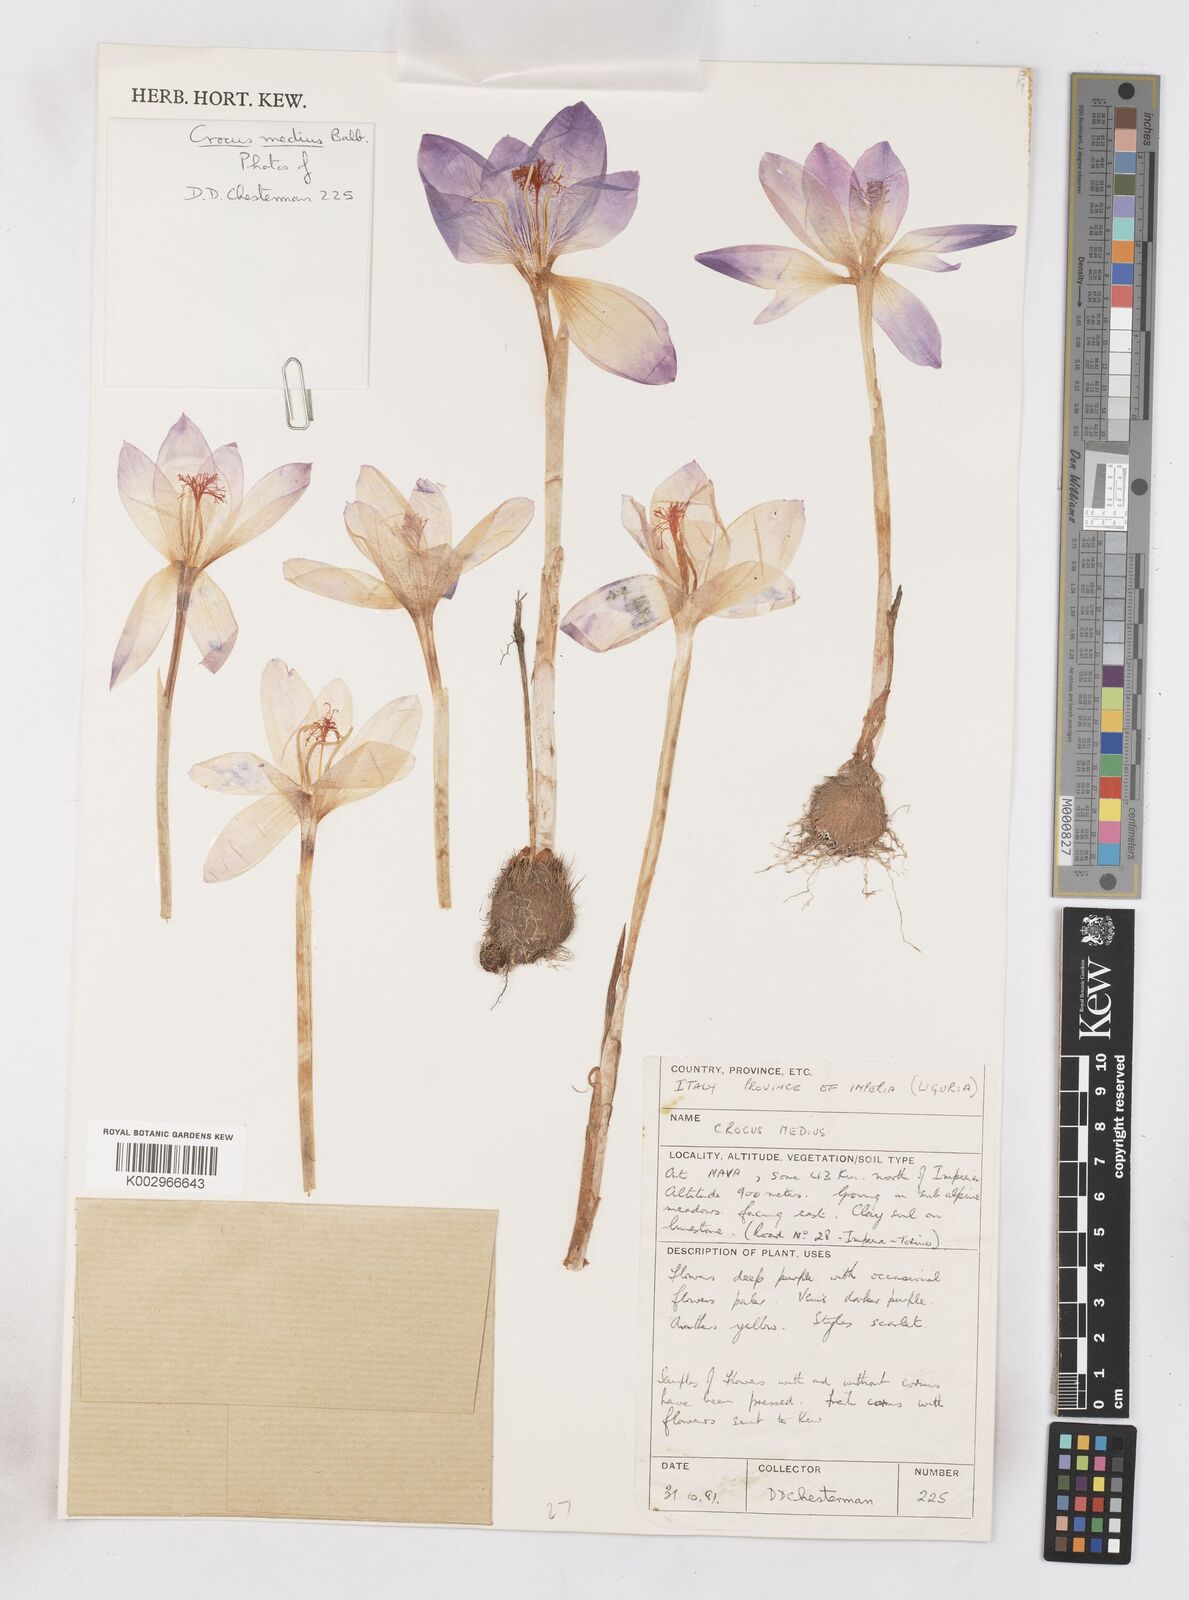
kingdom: Plantae
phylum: Tracheophyta
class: Liliopsida
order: Asparagales
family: Iridaceae
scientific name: Iridaceae
